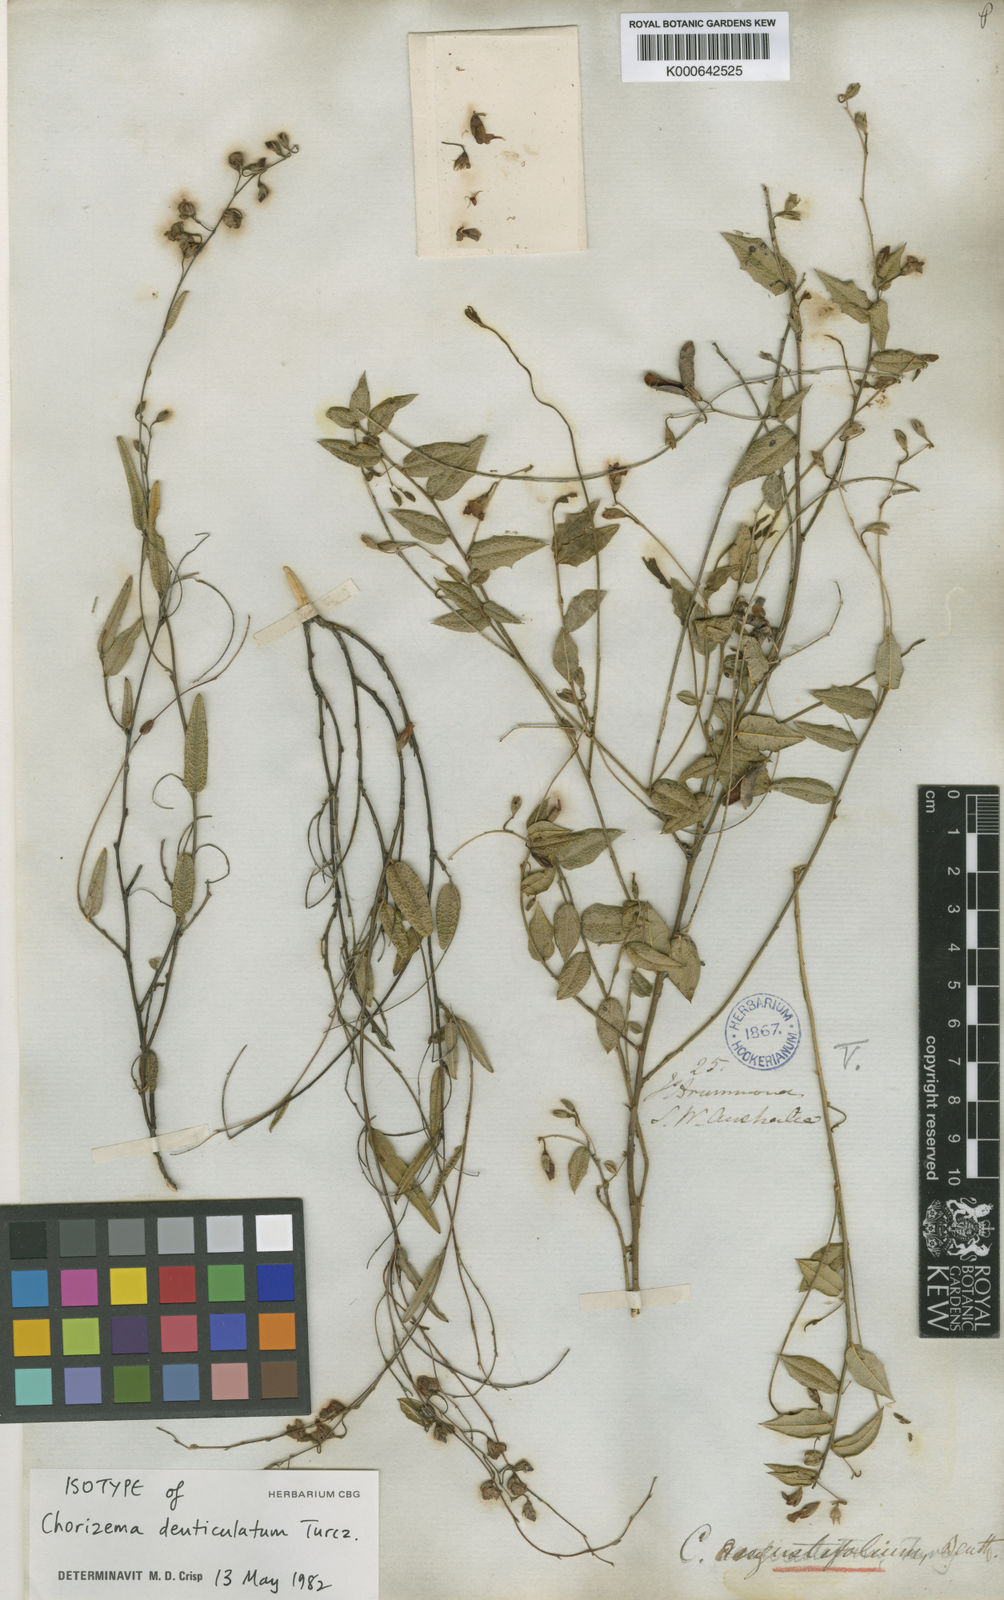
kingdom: Plantae
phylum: Tracheophyta
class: Magnoliopsida
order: Fabales
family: Fabaceae
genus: Chorizema
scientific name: Chorizema glycinifolium
